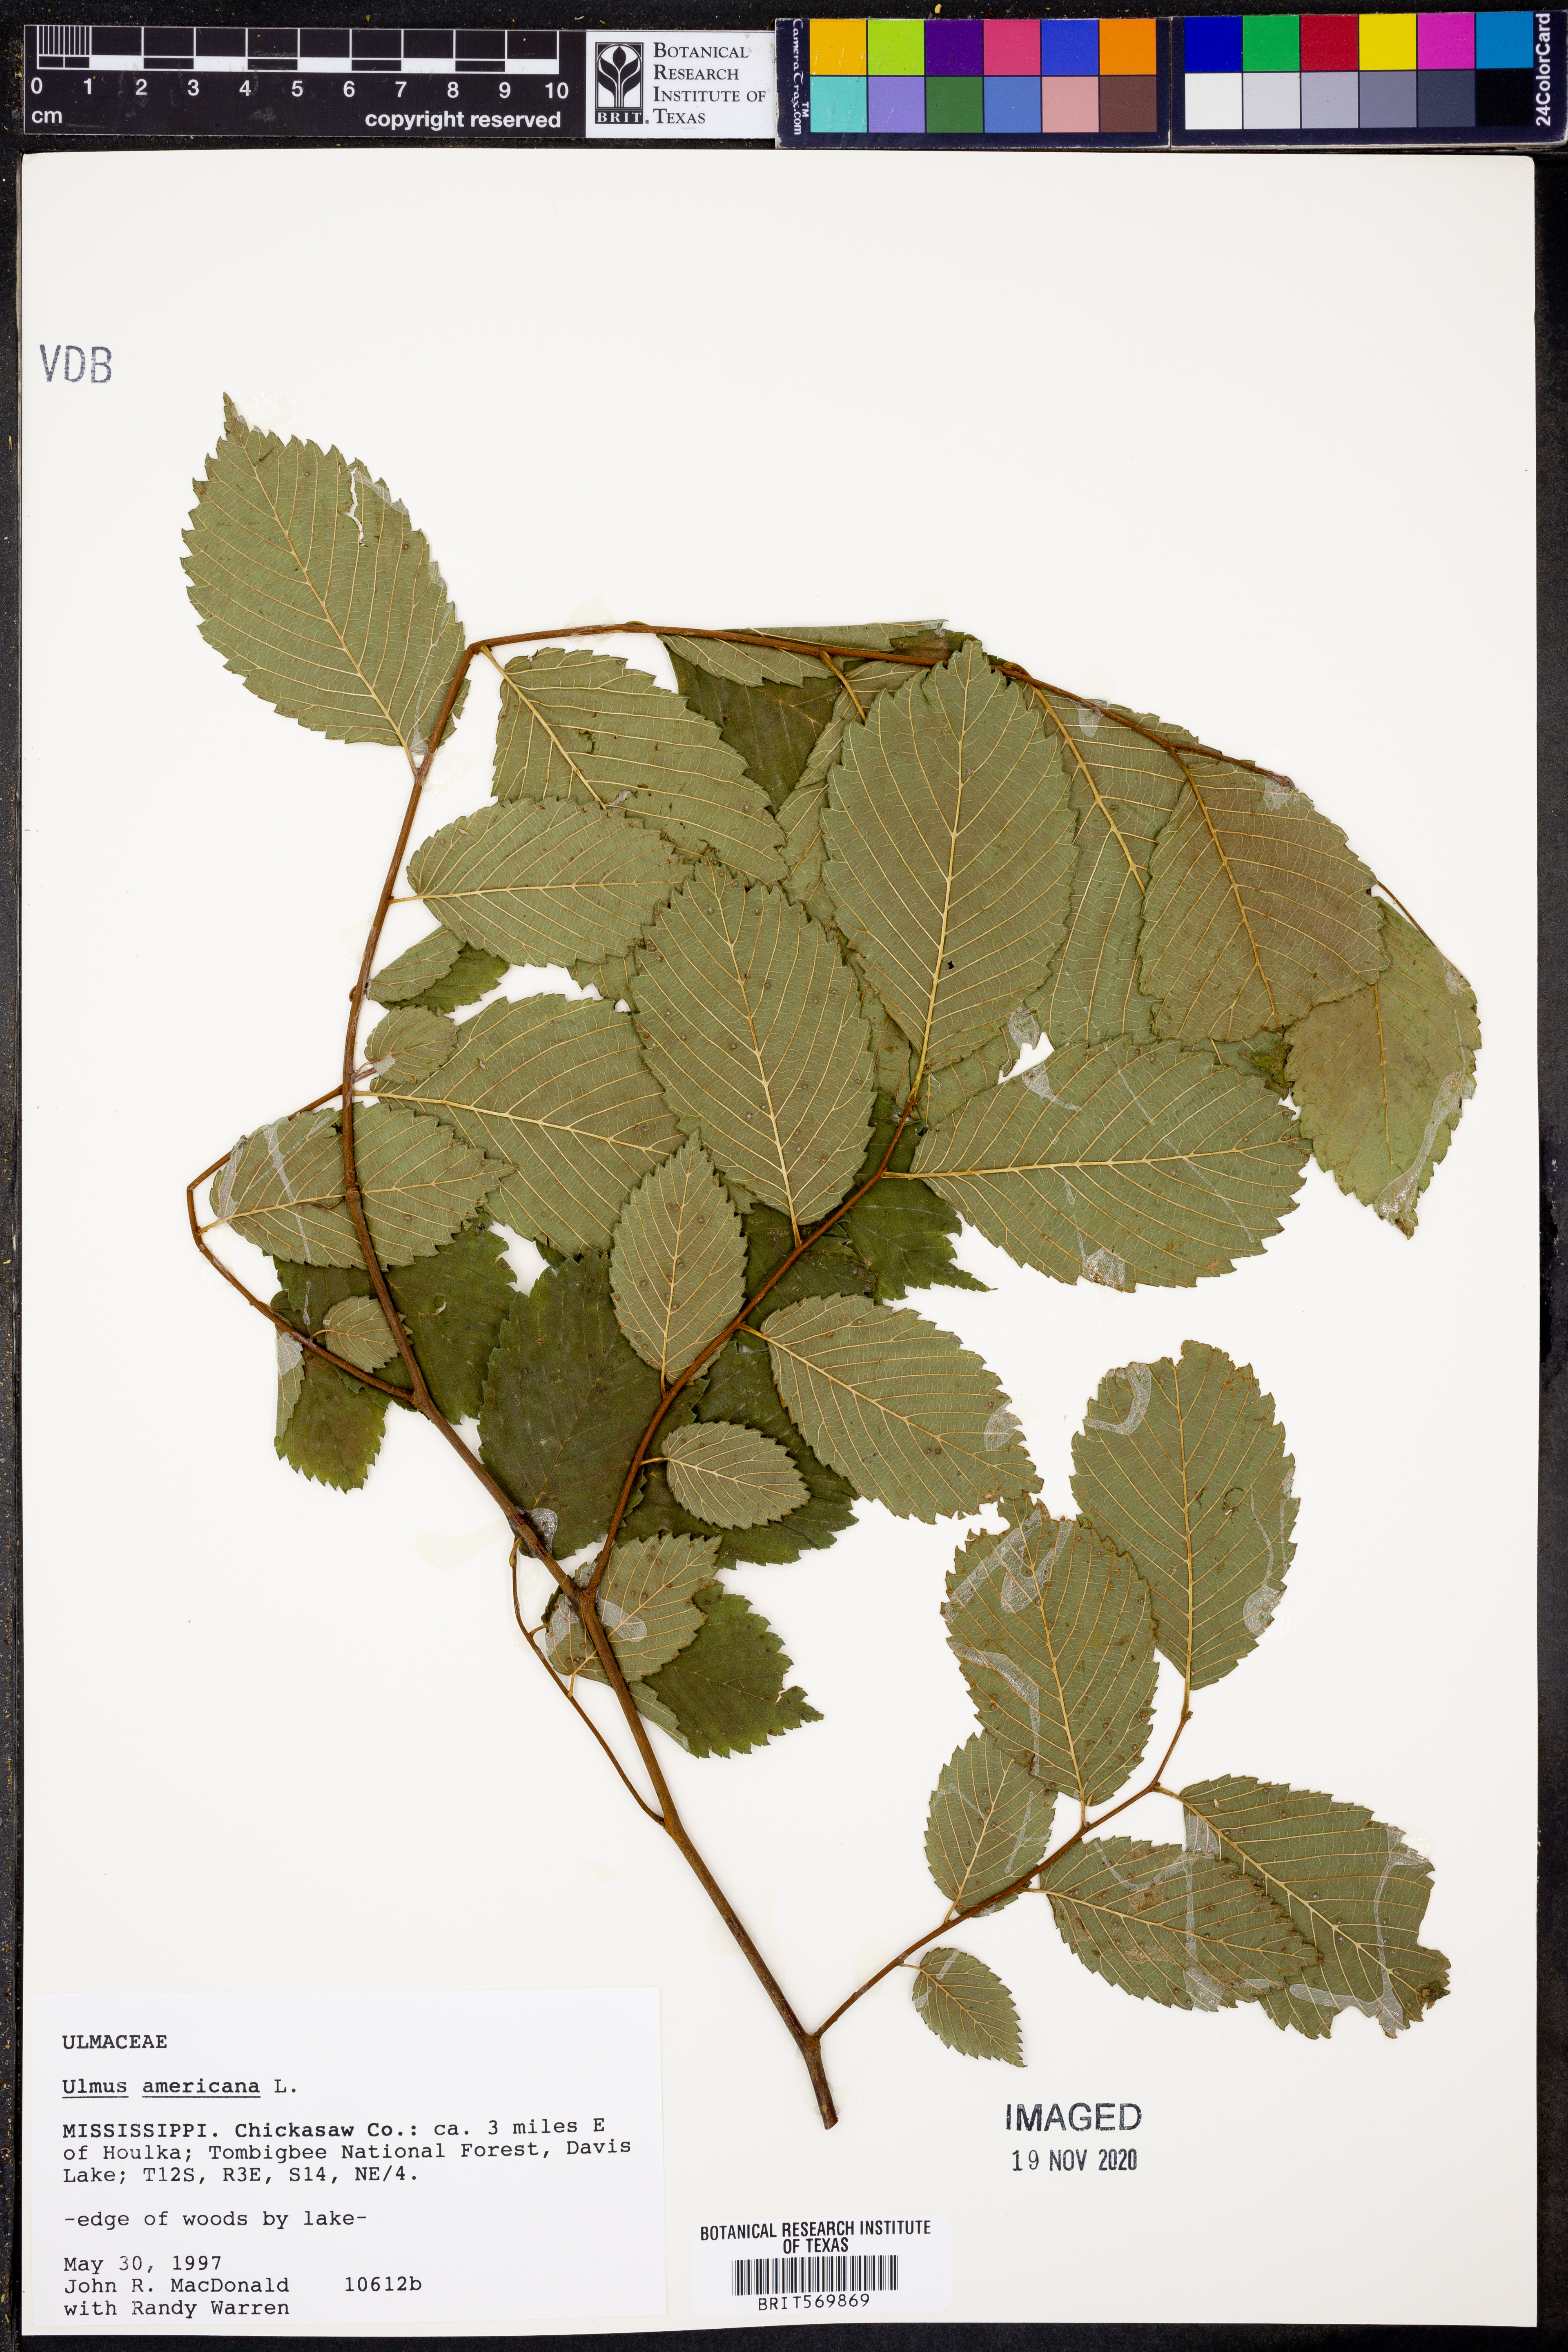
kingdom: Plantae
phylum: Tracheophyta
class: Magnoliopsida
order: Rosales
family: Ulmaceae
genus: Ulmus
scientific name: Ulmus americana
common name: American elm
